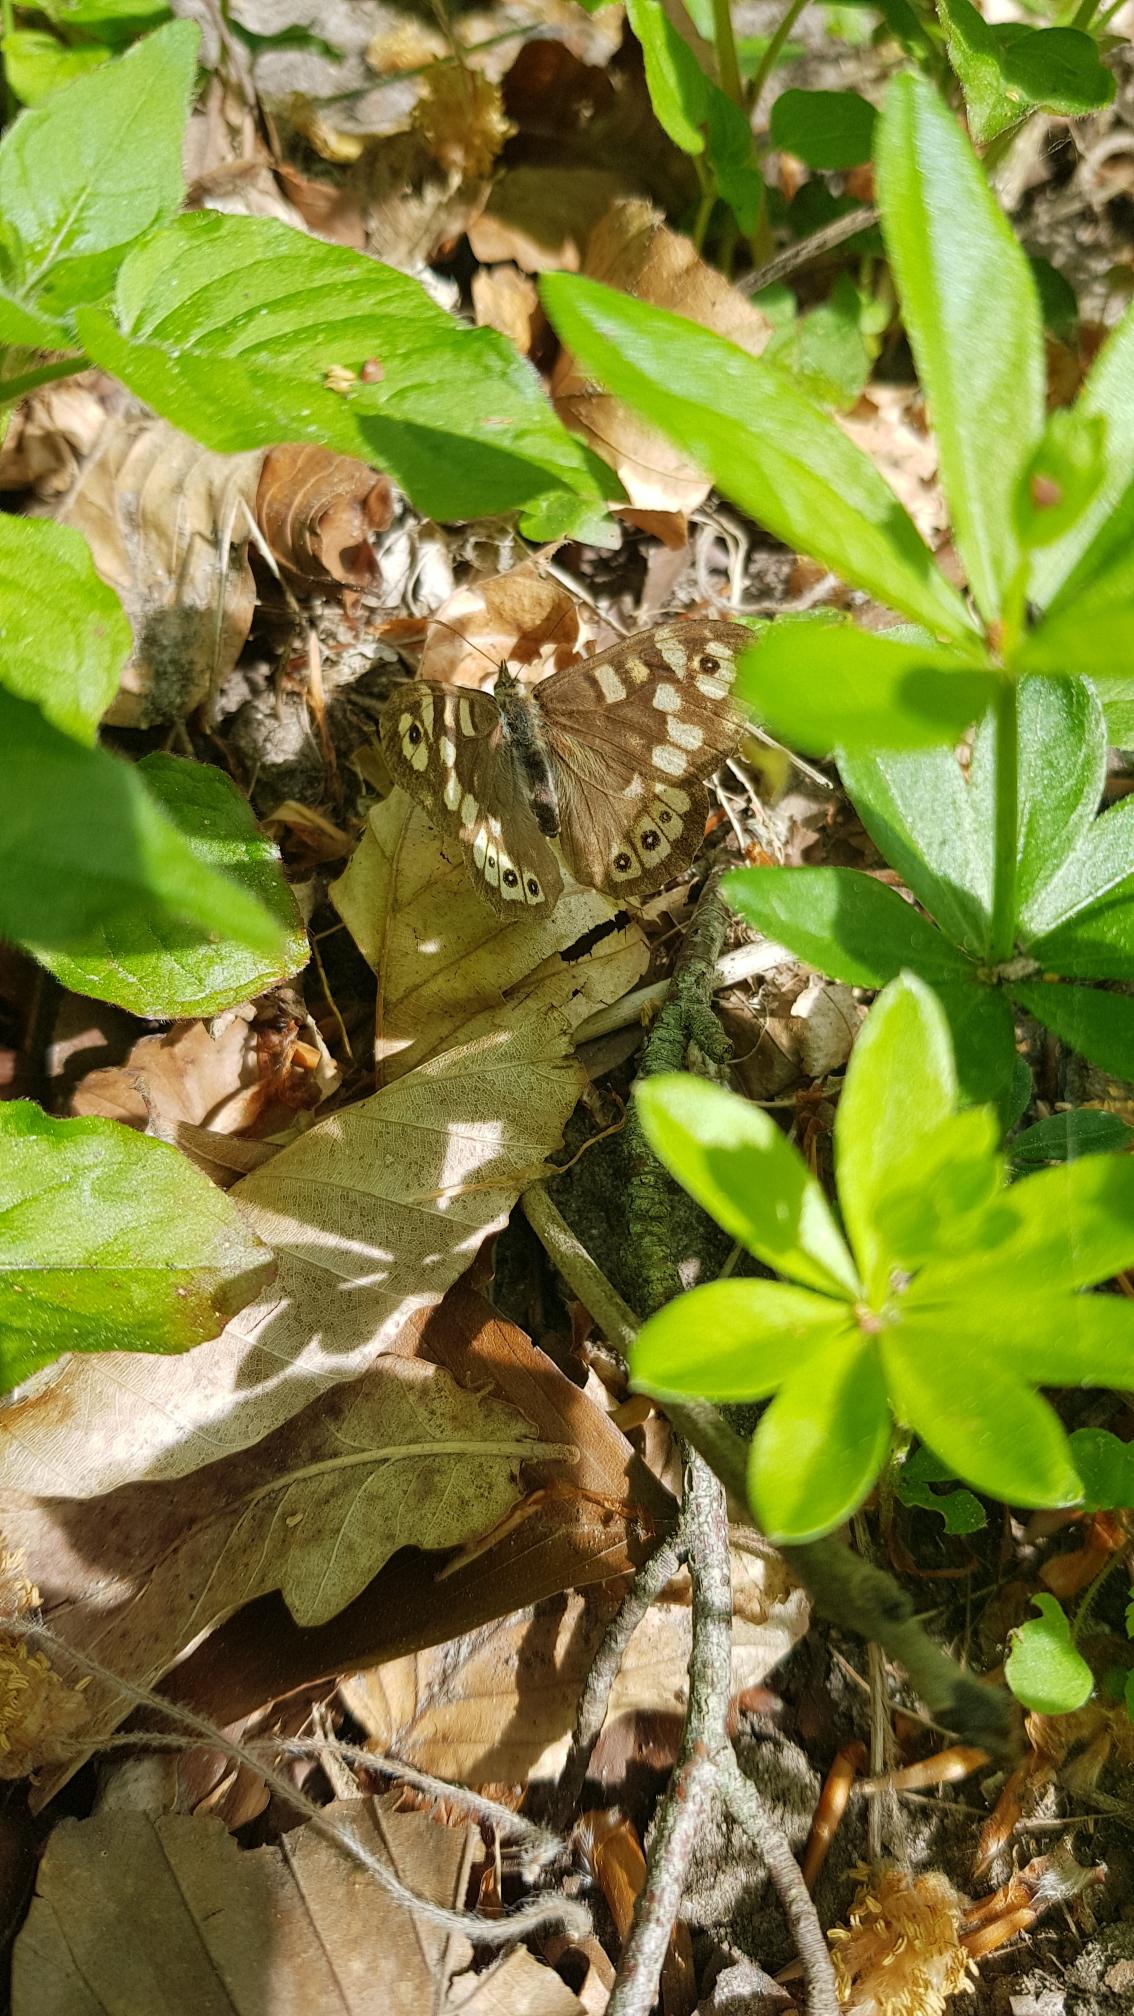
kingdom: Animalia
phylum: Arthropoda
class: Insecta
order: Lepidoptera
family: Nymphalidae
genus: Pararge
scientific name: Pararge aegeria
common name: Skovrandøje
